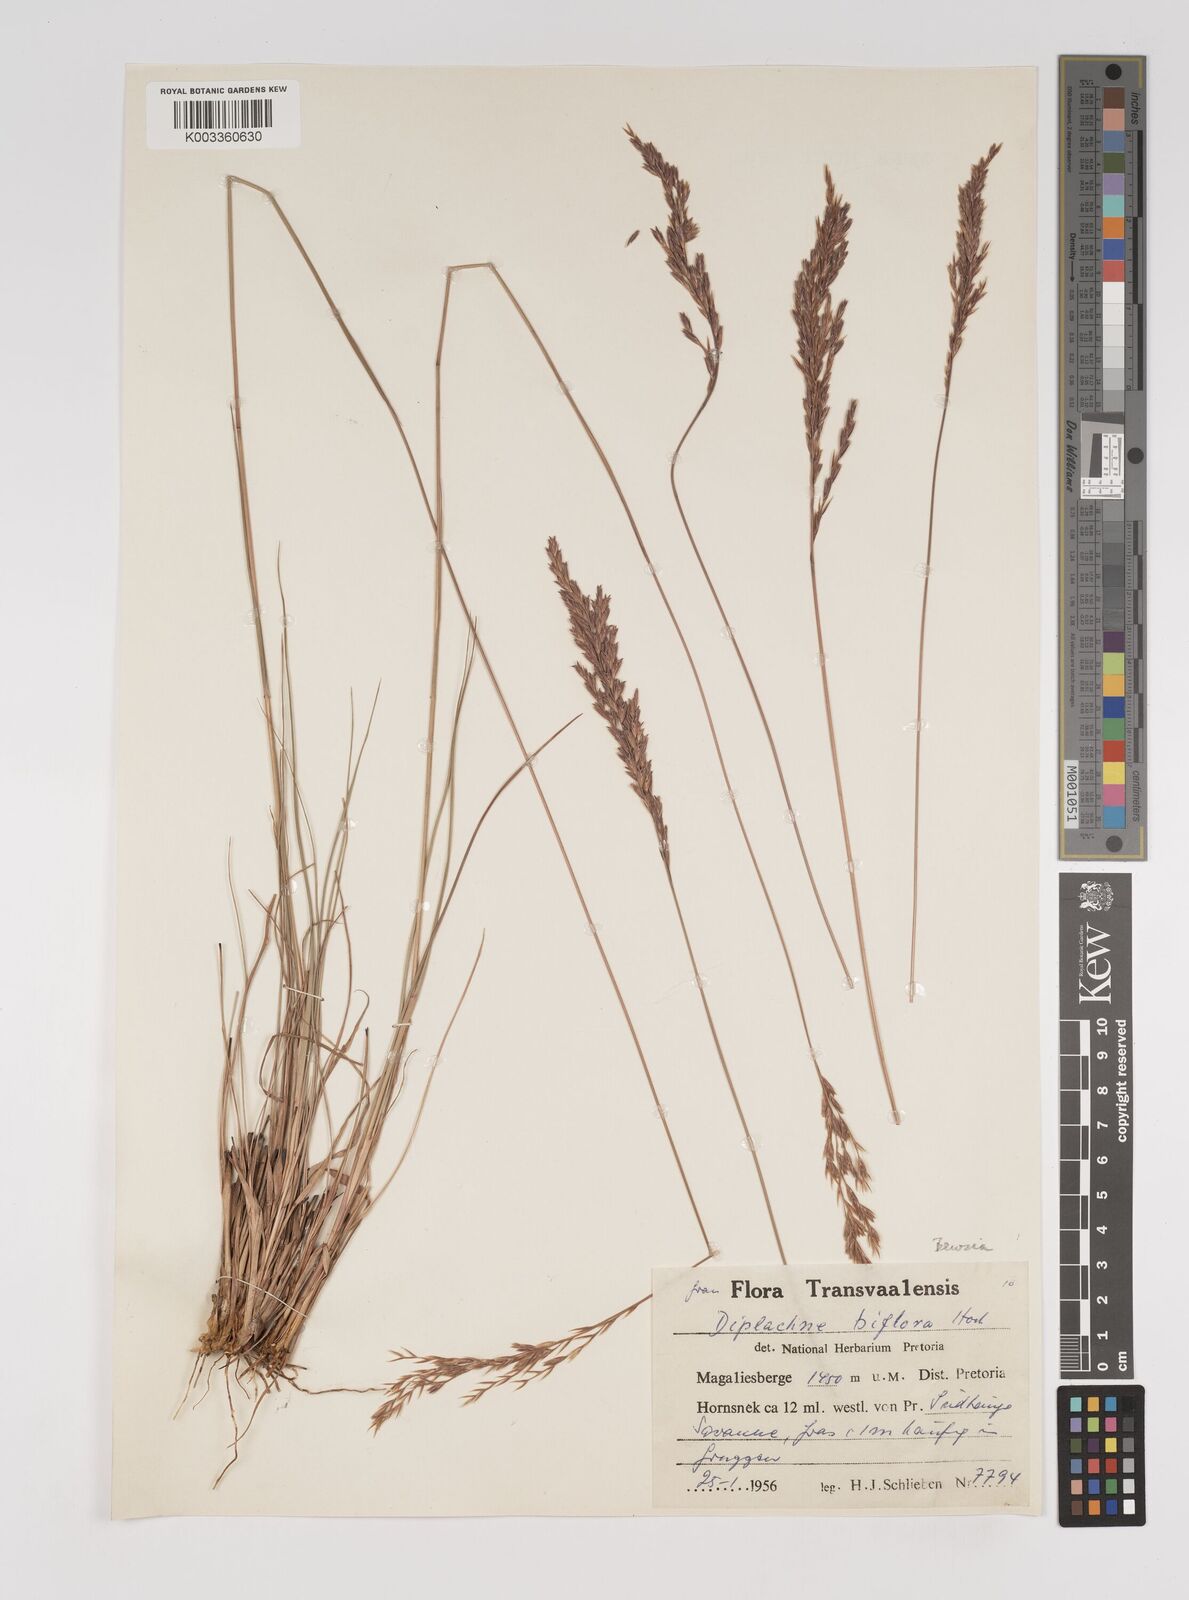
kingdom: Plantae
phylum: Tracheophyta
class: Liliopsida
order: Poales
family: Poaceae
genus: Bewsia
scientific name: Bewsia biflora
